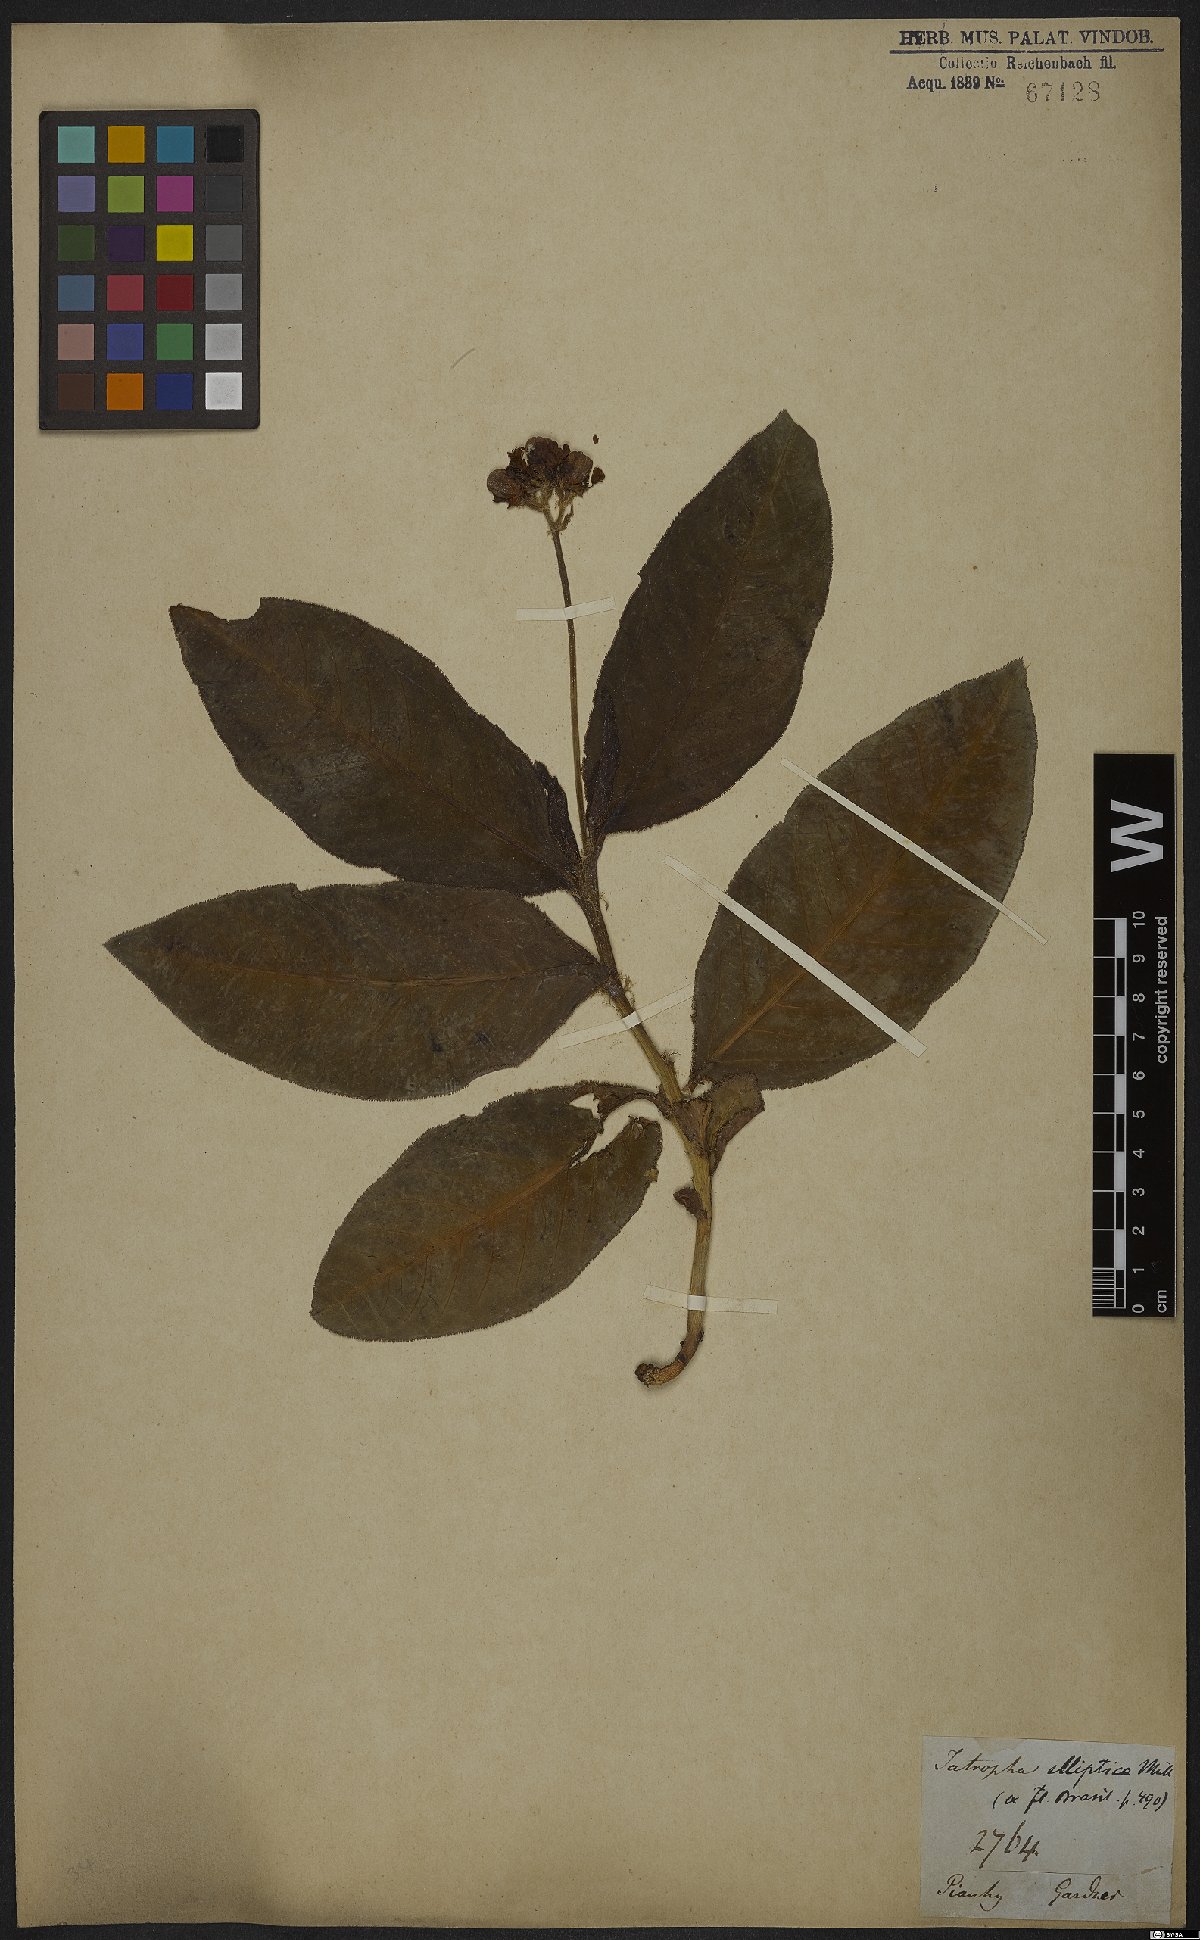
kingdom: Plantae
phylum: Tracheophyta
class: Magnoliopsida
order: Malpighiales
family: Euphorbiaceae
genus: Jatropha
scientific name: Jatropha elliptica
